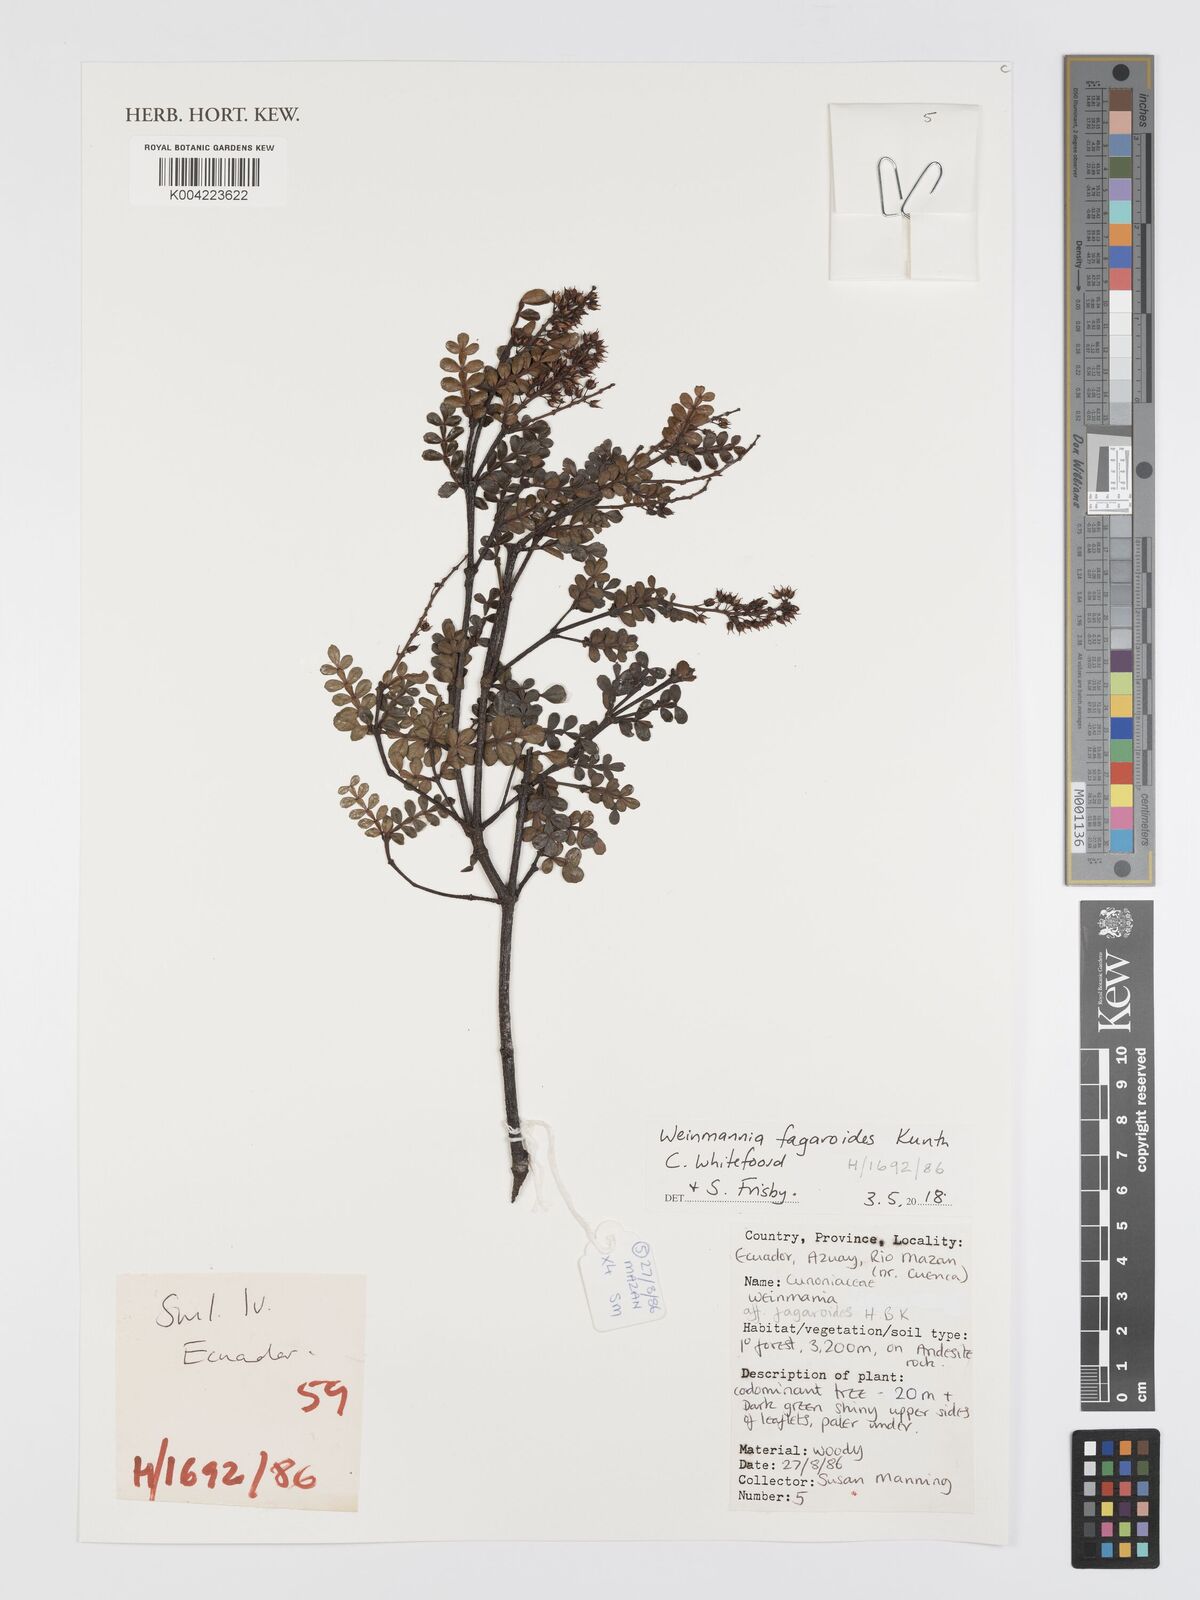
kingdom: Plantae
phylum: Tracheophyta
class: Magnoliopsida
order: Oxalidales
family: Cunoniaceae
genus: Weinmannia
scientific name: Weinmannia fagaroides
